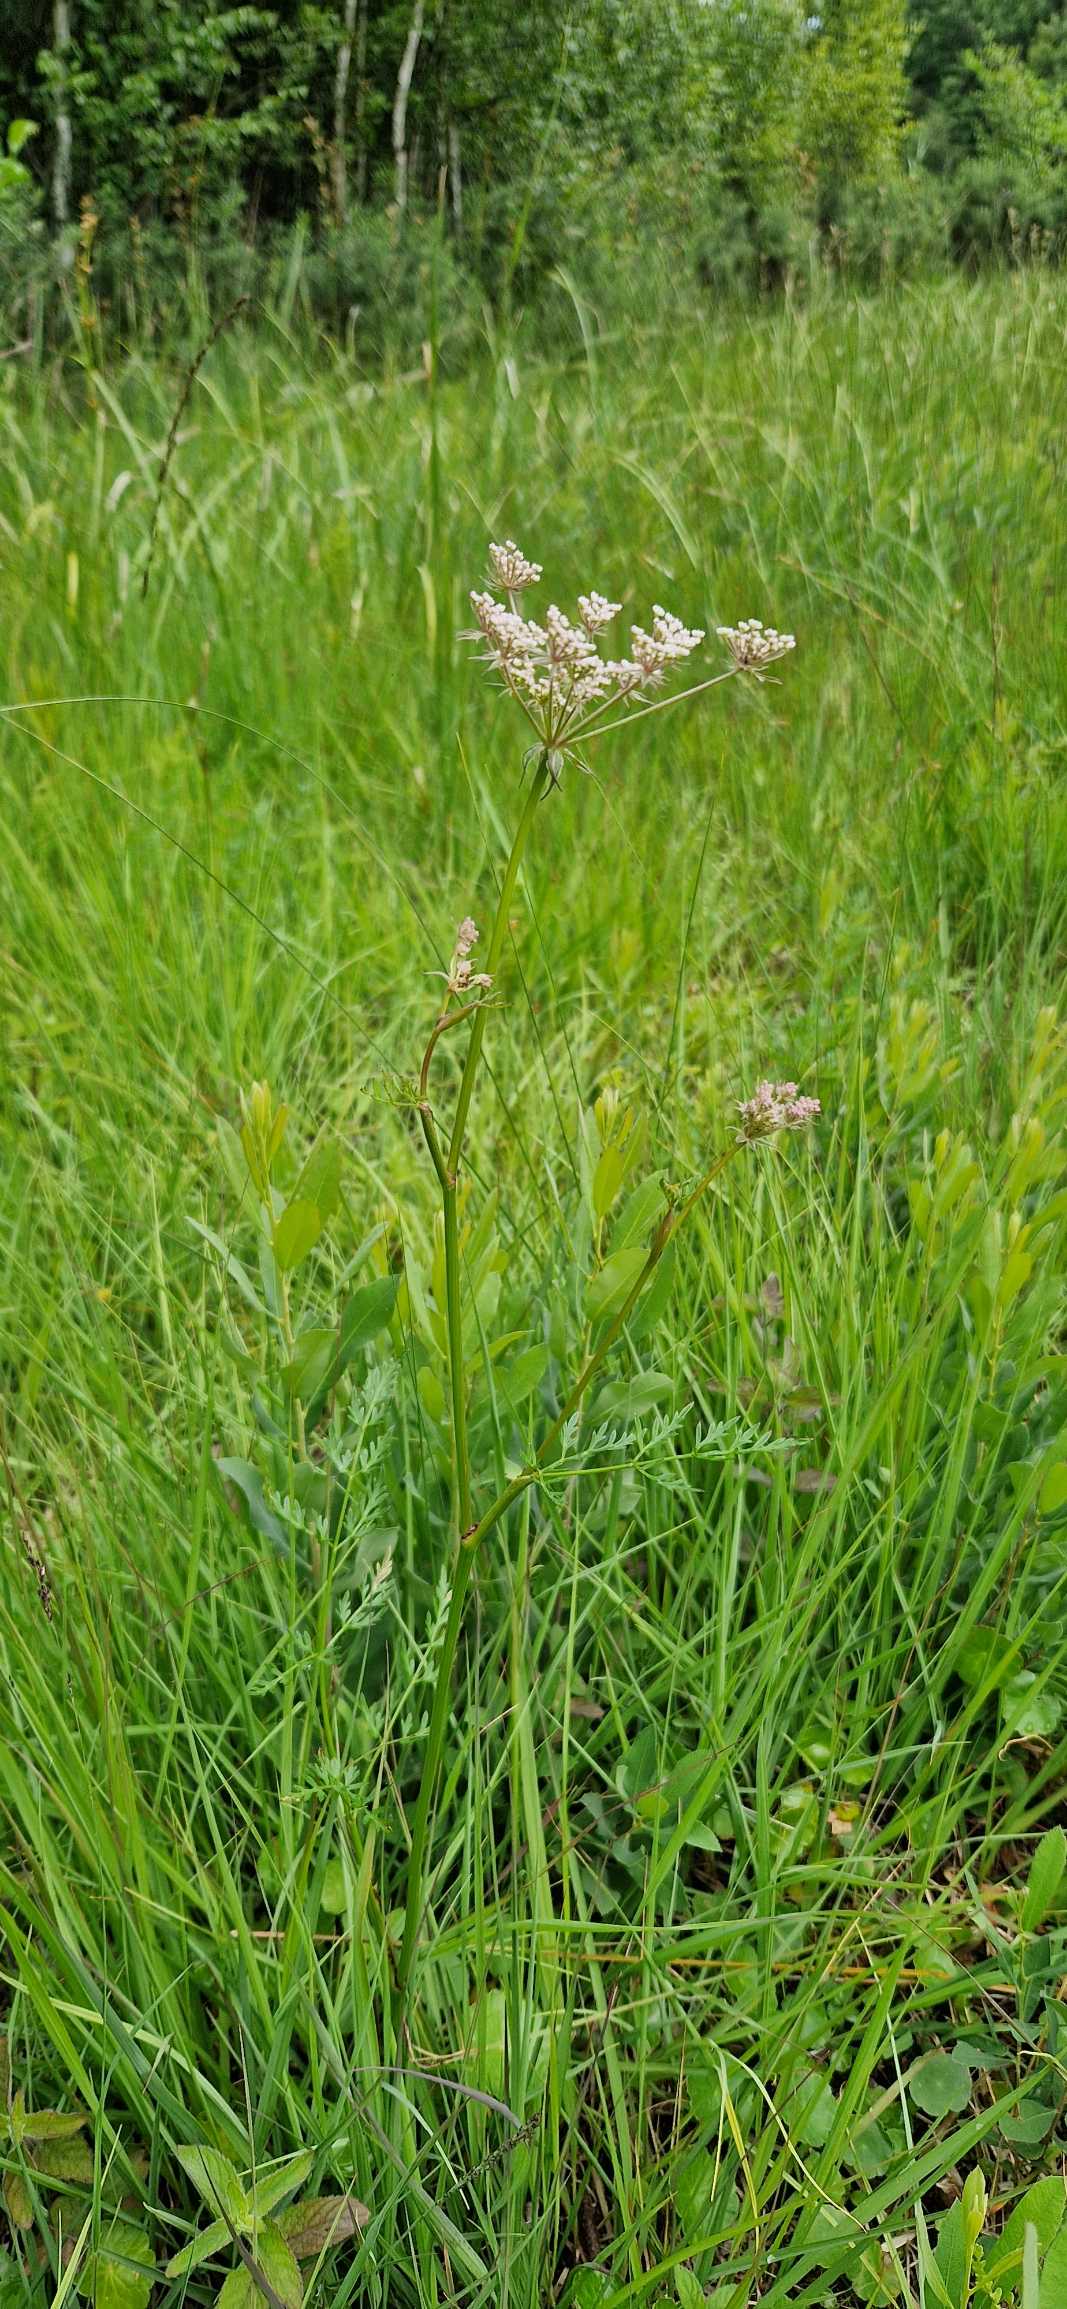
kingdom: Plantae
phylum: Tracheophyta
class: Magnoliopsida
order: Apiales
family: Apiaceae
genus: Thysselinum
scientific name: Thysselinum palustre
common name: Kær-svovlrod
